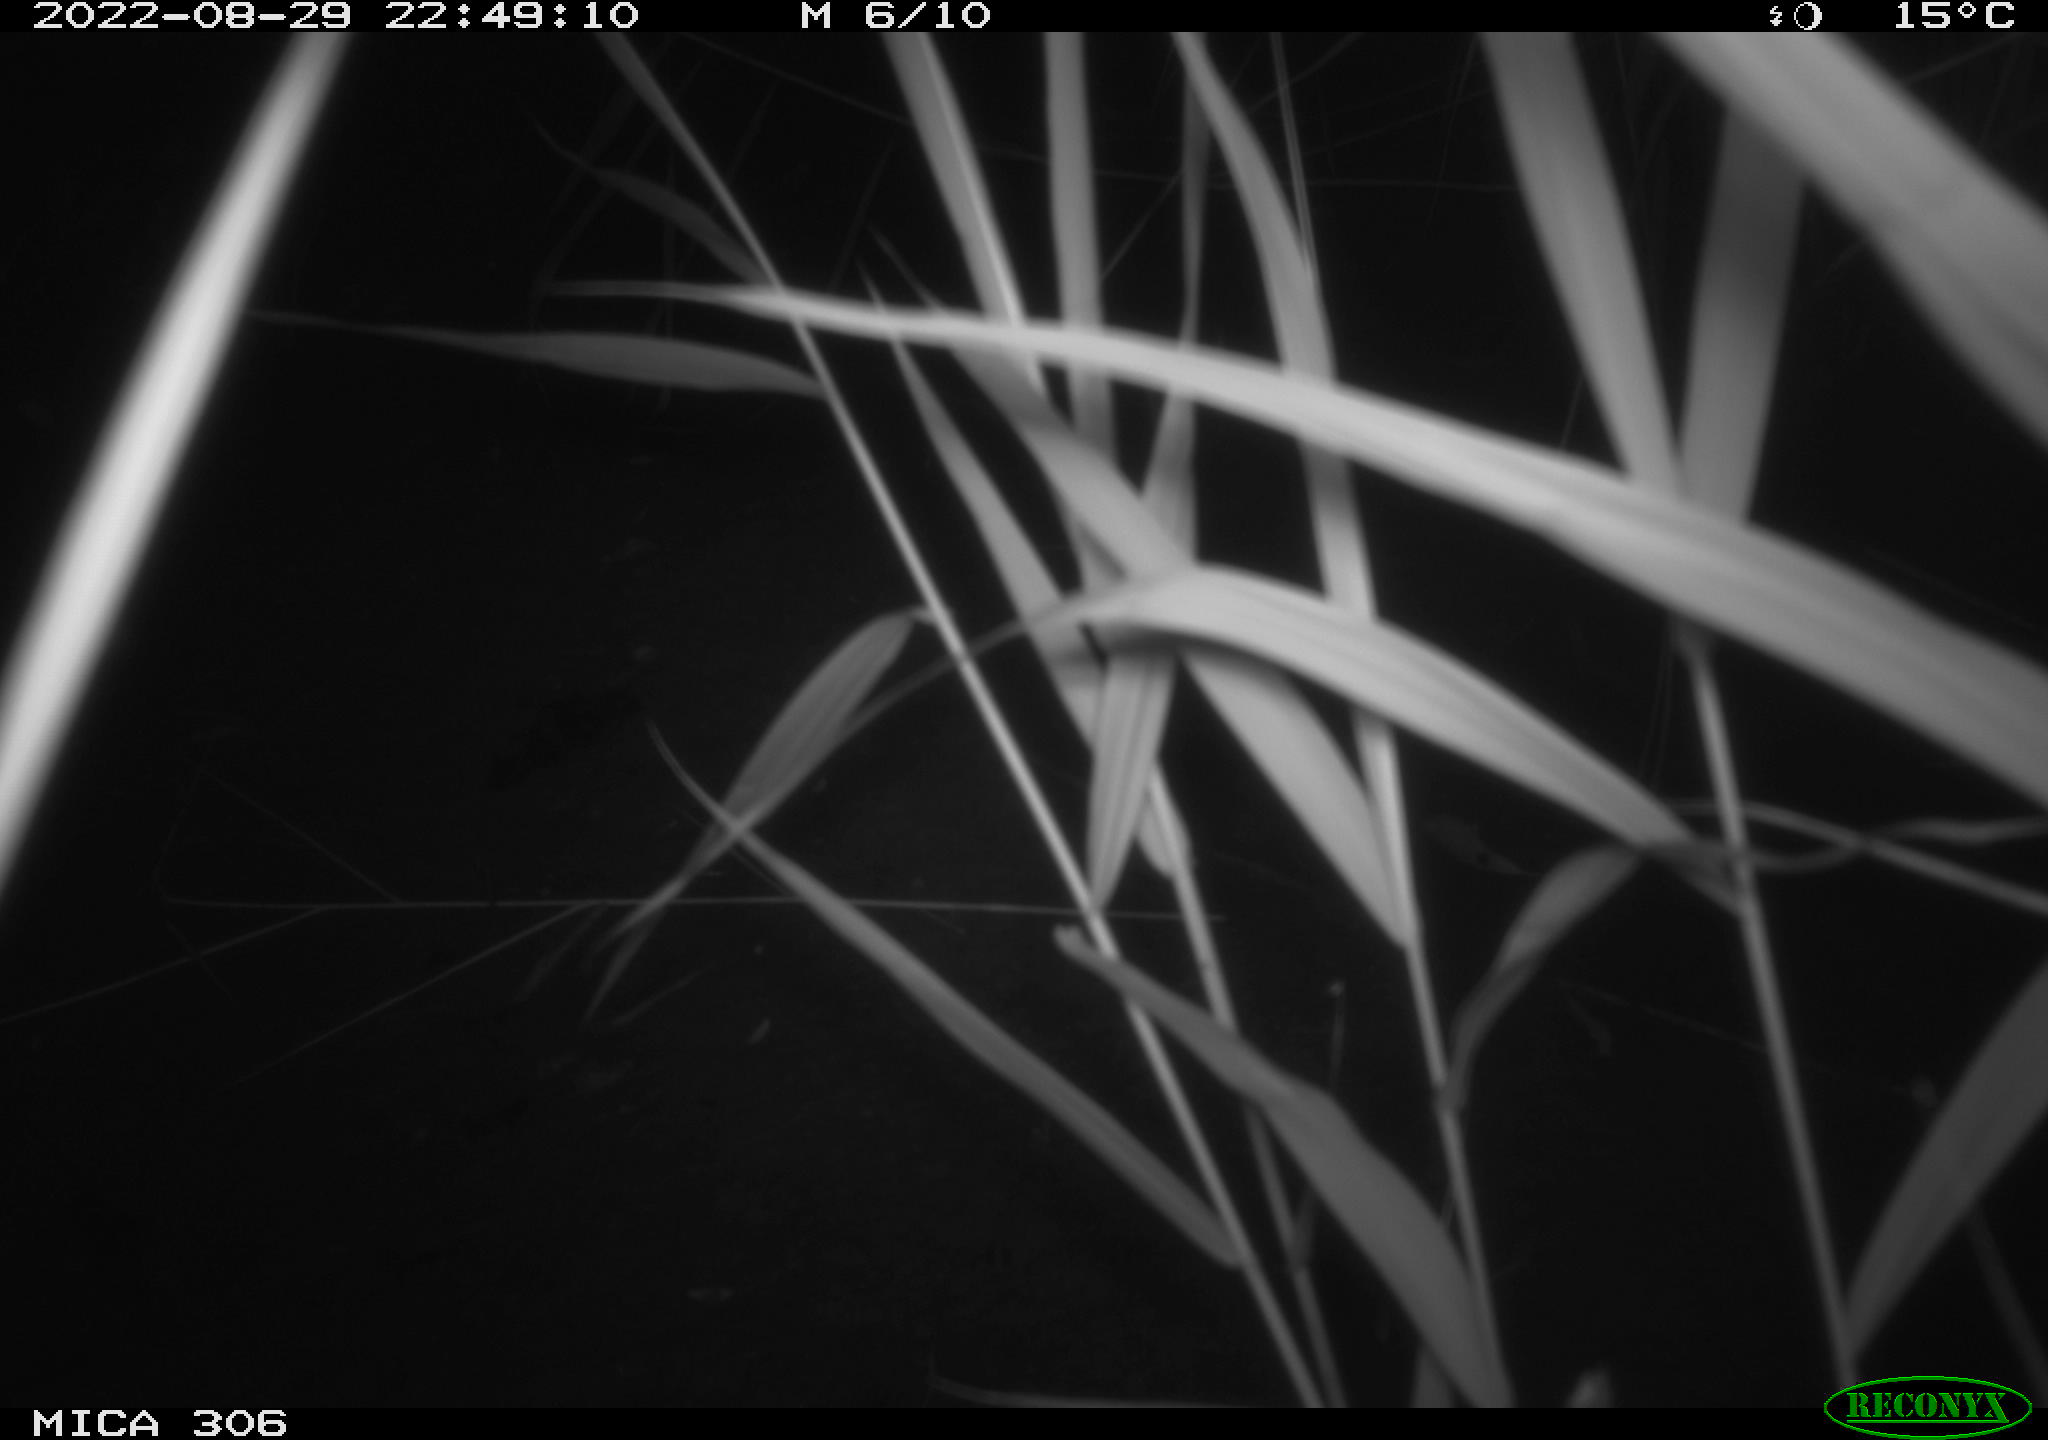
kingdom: Animalia
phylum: Chordata
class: Mammalia
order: Rodentia
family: Muridae
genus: Rattus
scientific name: Rattus norvegicus
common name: Brown rat
